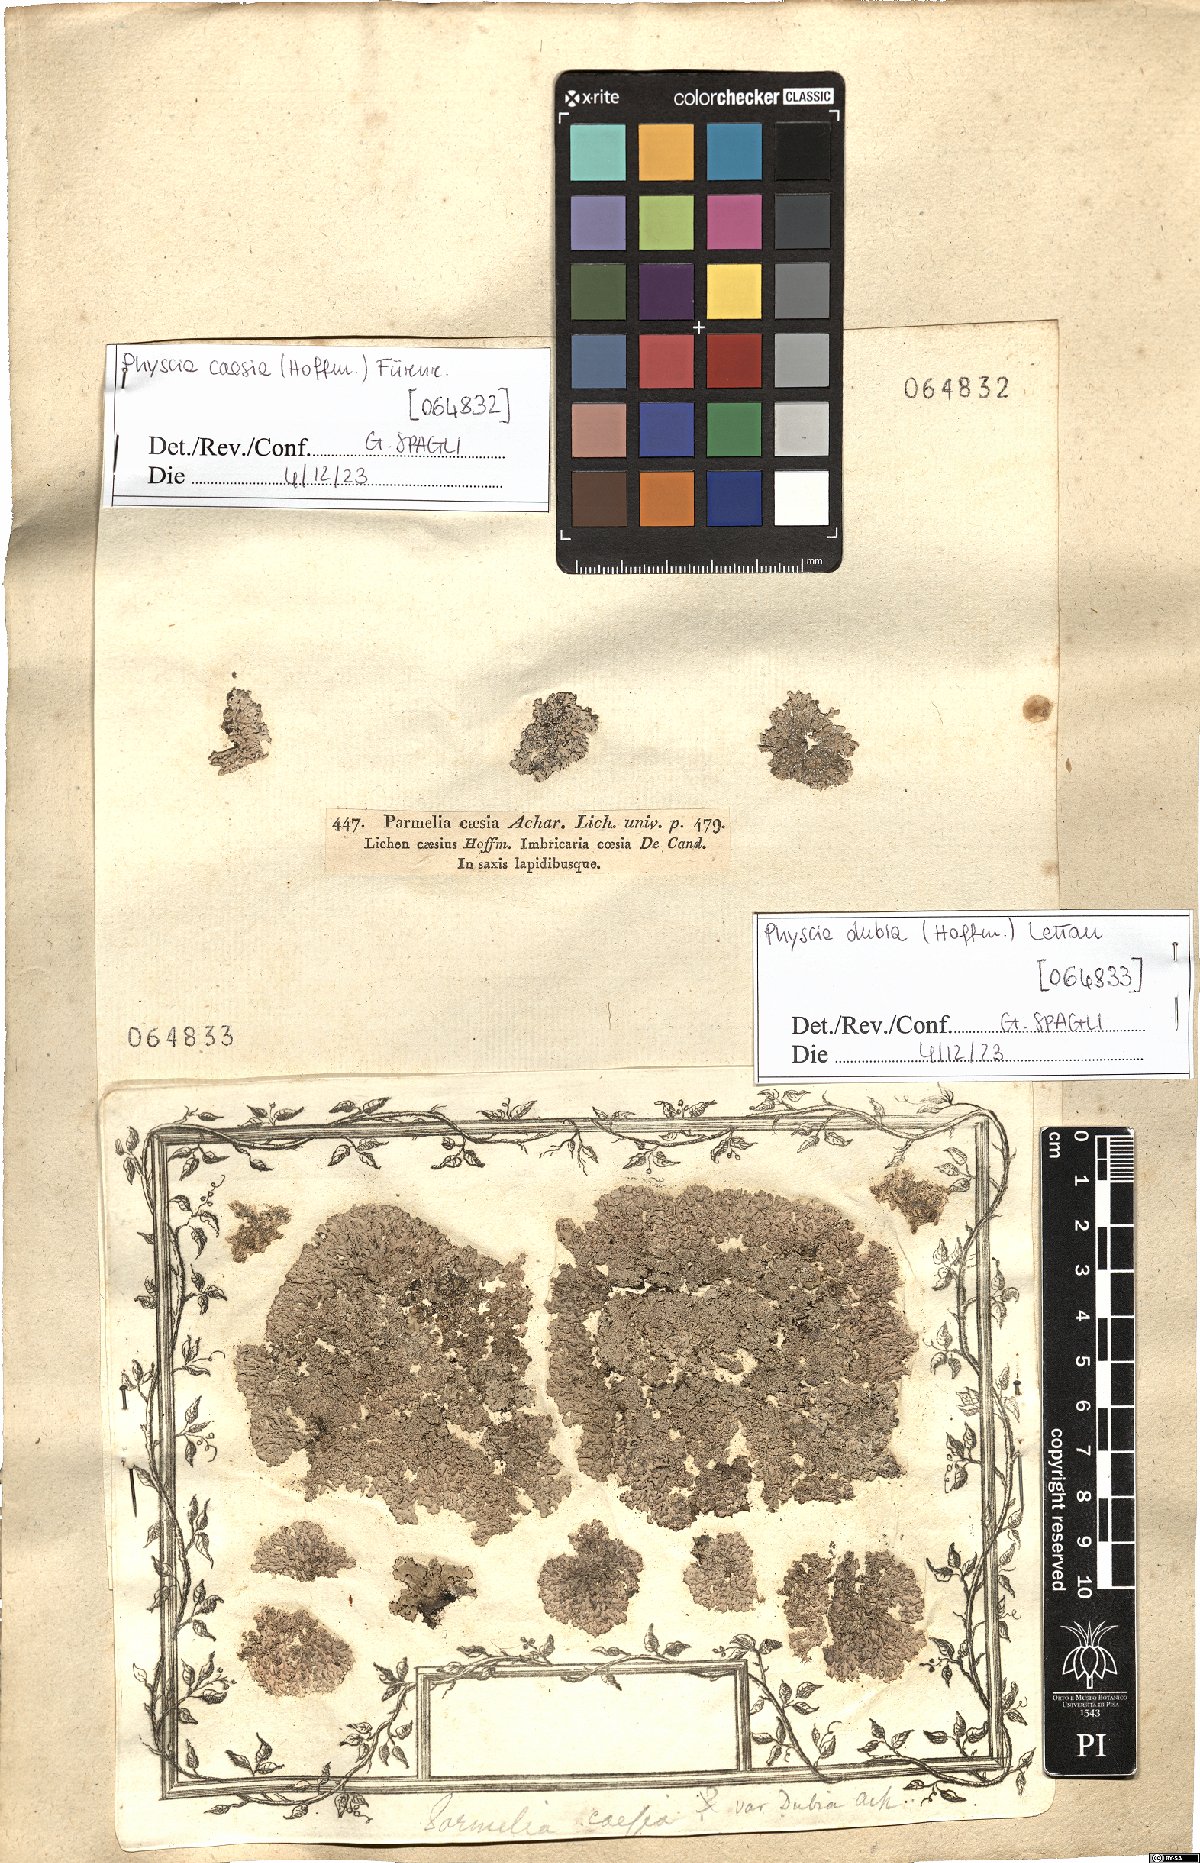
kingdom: Fungi
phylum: Ascomycota
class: Lecanoromycetes
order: Caliciales
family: Physciaceae
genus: Physcia
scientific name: Physcia caesia
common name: Blue-gray rosette lichen
